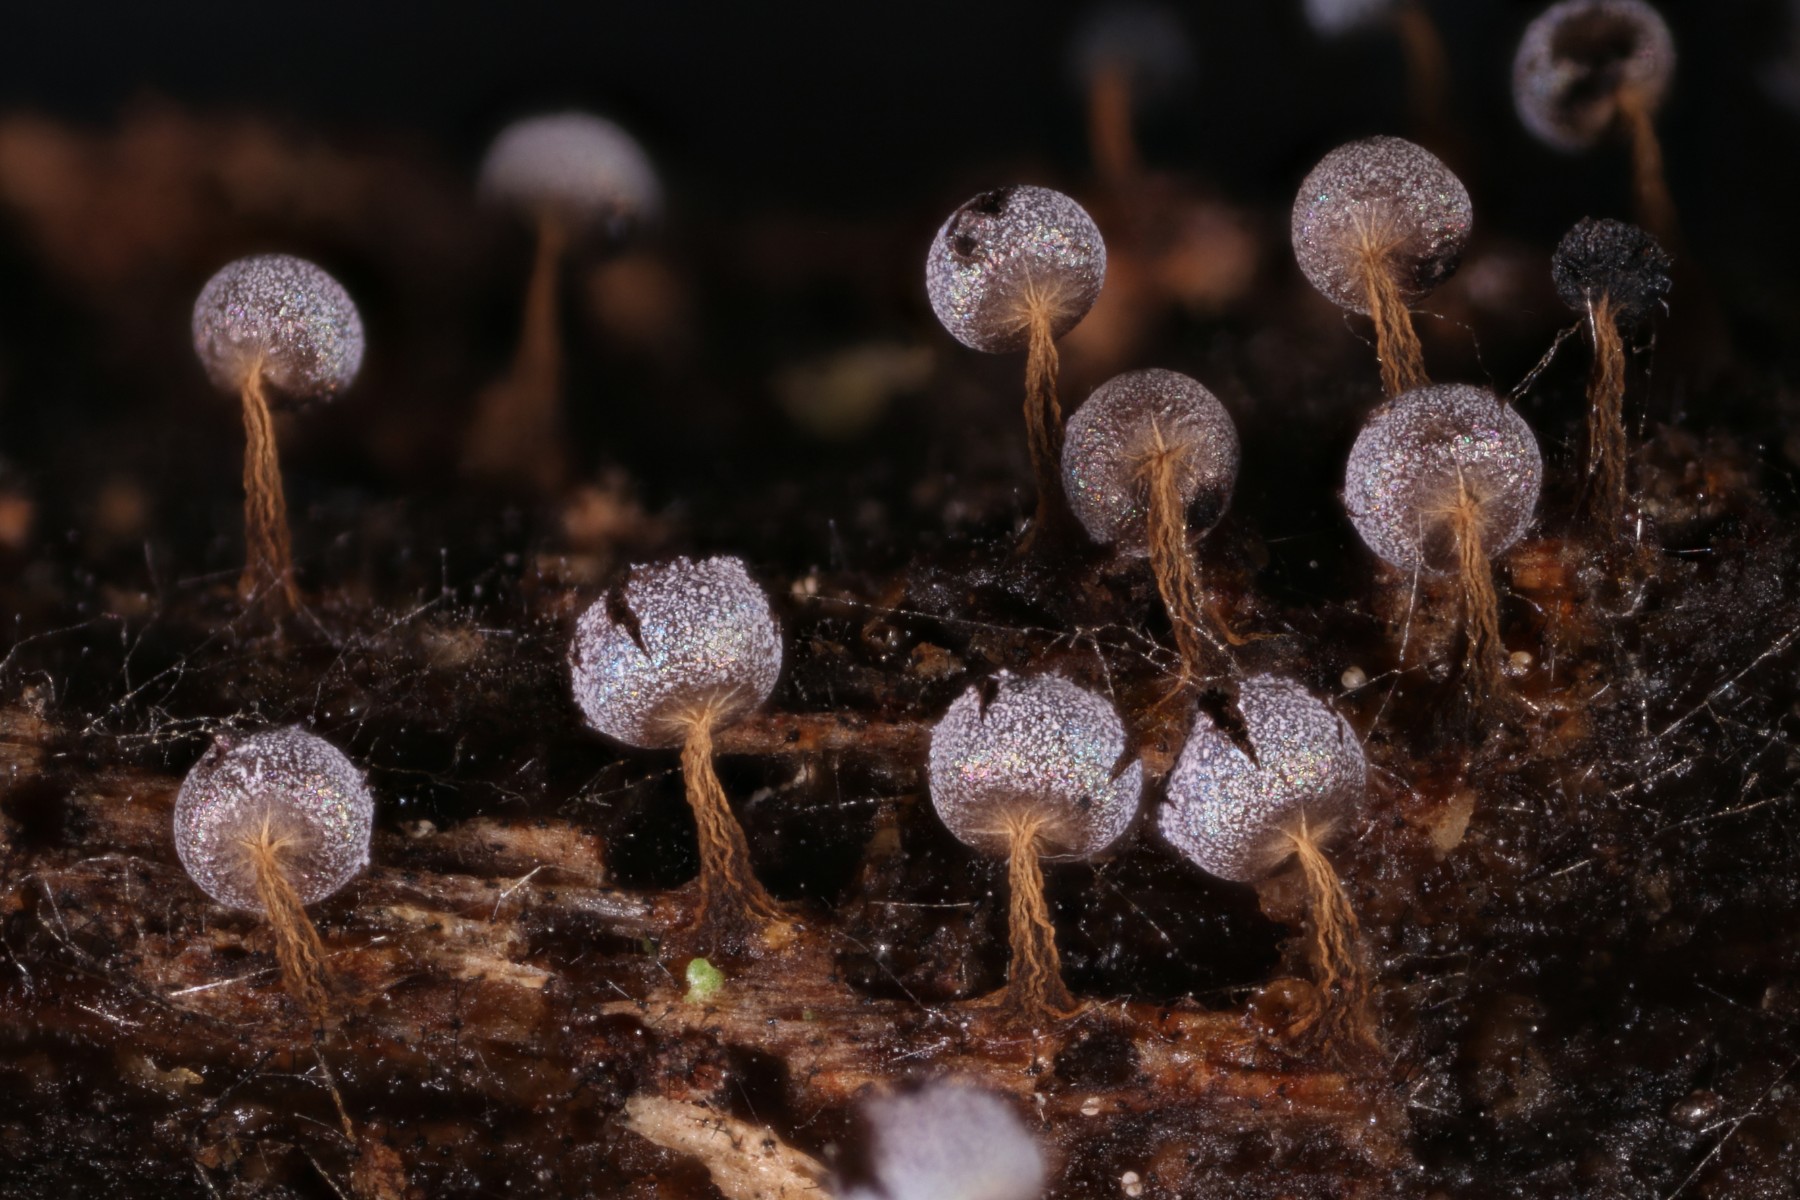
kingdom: Protozoa
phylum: Mycetozoa
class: Myxomycetes
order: Physarales
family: Physaraceae
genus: Physarum
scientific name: Physarum robustum
